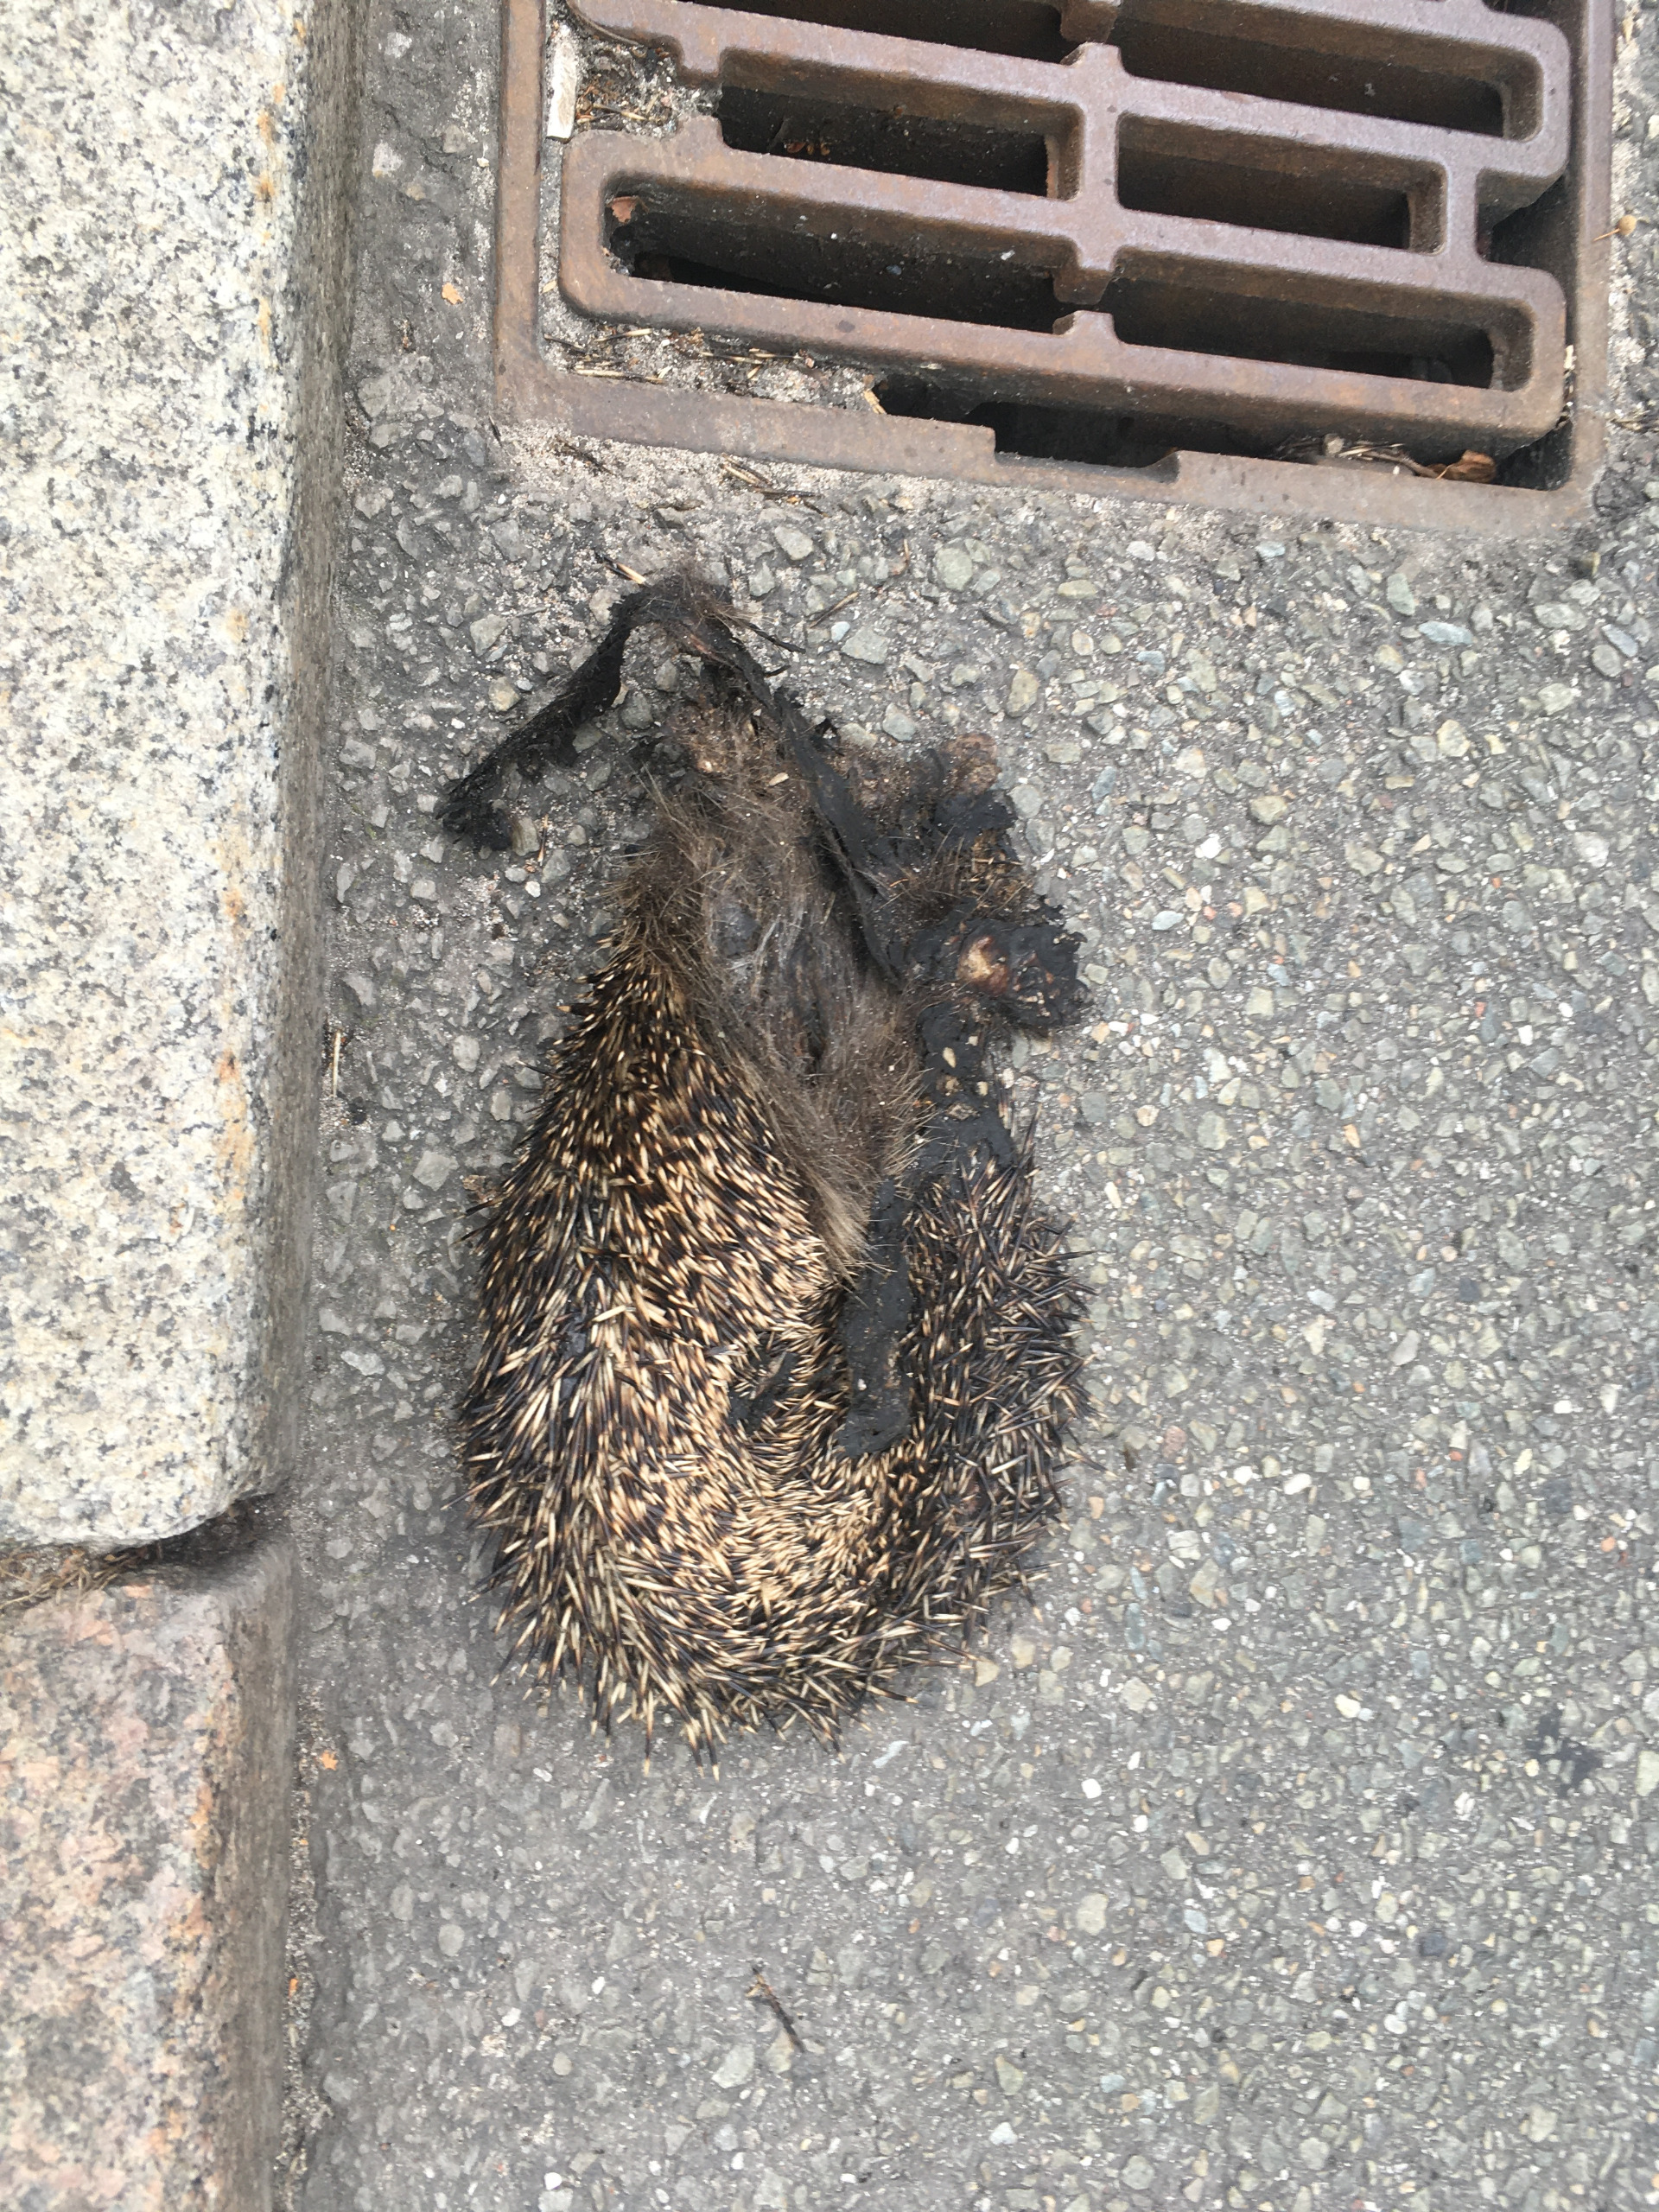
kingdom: Animalia
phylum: Chordata
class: Mammalia
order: Erinaceomorpha
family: Erinaceidae
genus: Erinaceus
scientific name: Erinaceus europaeus
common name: Pindsvin
